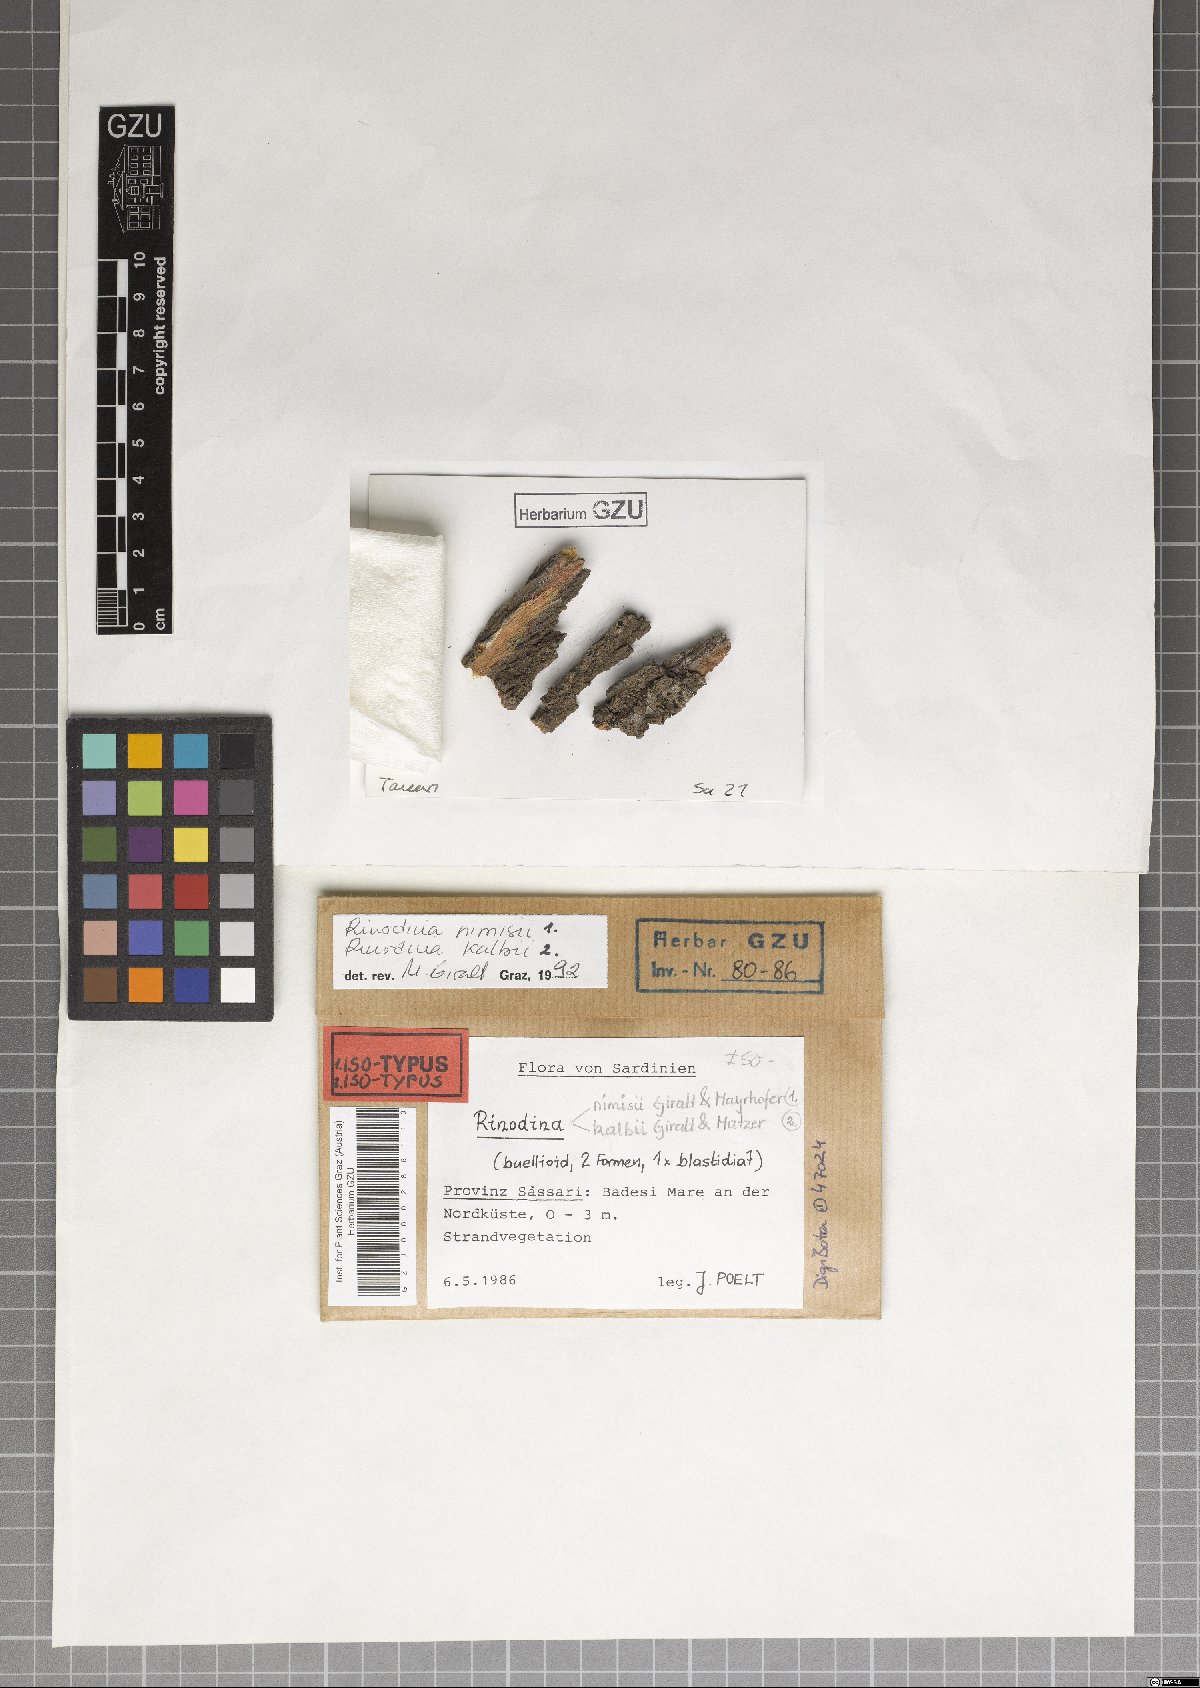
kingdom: Fungi
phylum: Ascomycota
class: Lecanoromycetes
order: Caliciales
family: Physciaceae
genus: Rinodina
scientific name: Rinodina nimisii
